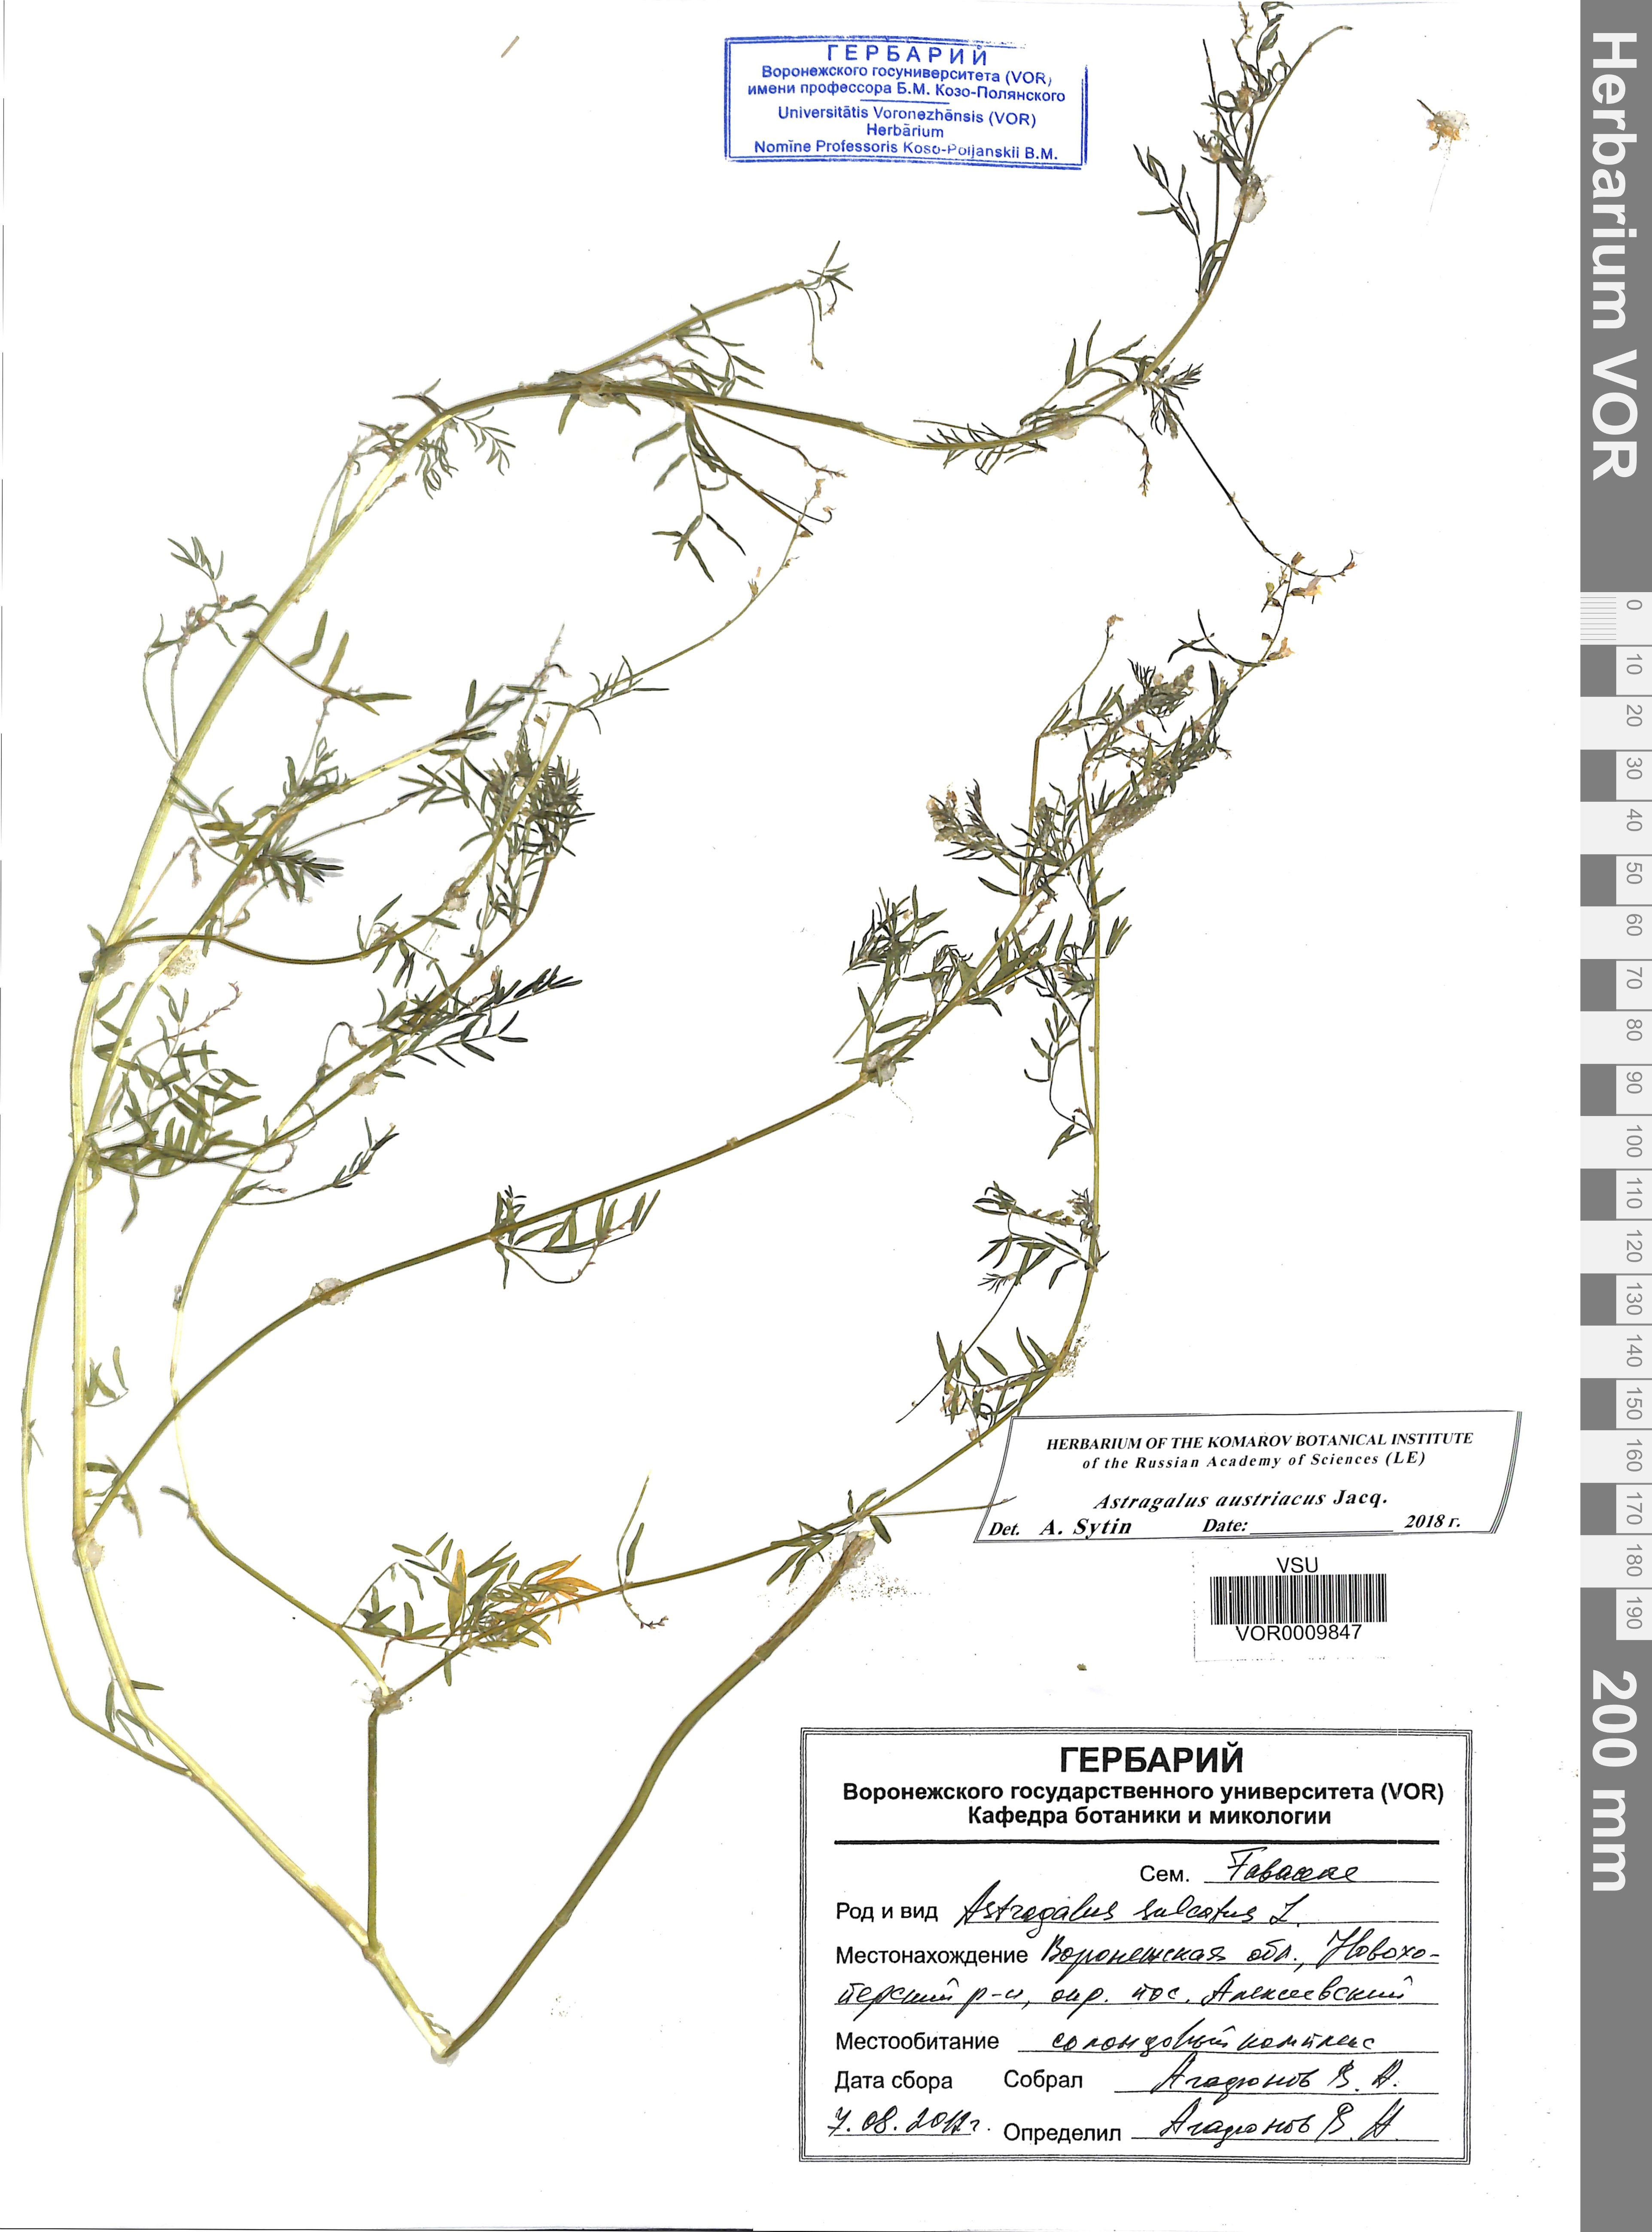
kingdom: Plantae
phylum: Tracheophyta
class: Magnoliopsida
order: Fabales
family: Fabaceae
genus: Astragalus
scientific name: Astragalus austriacus
